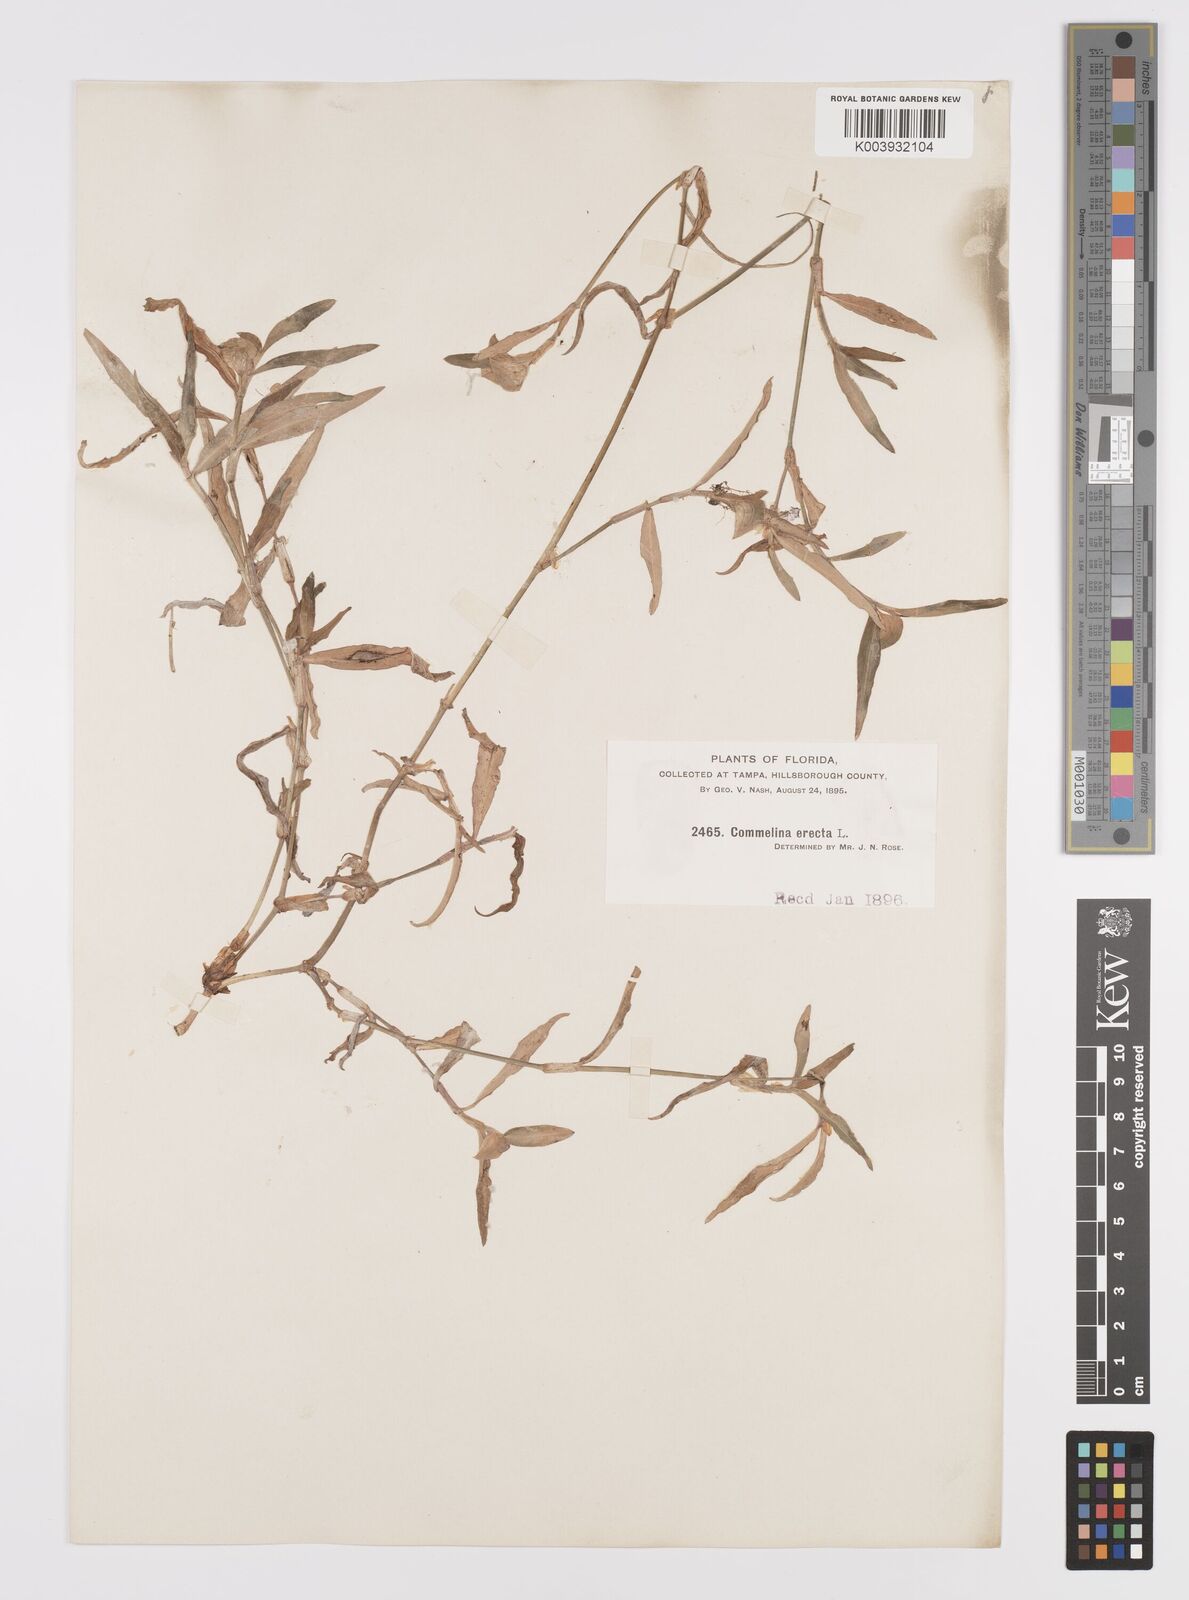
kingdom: Plantae
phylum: Tracheophyta
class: Liliopsida
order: Commelinales
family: Commelinaceae
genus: Commelina
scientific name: Commelina erecta
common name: Blousel blommetjie
